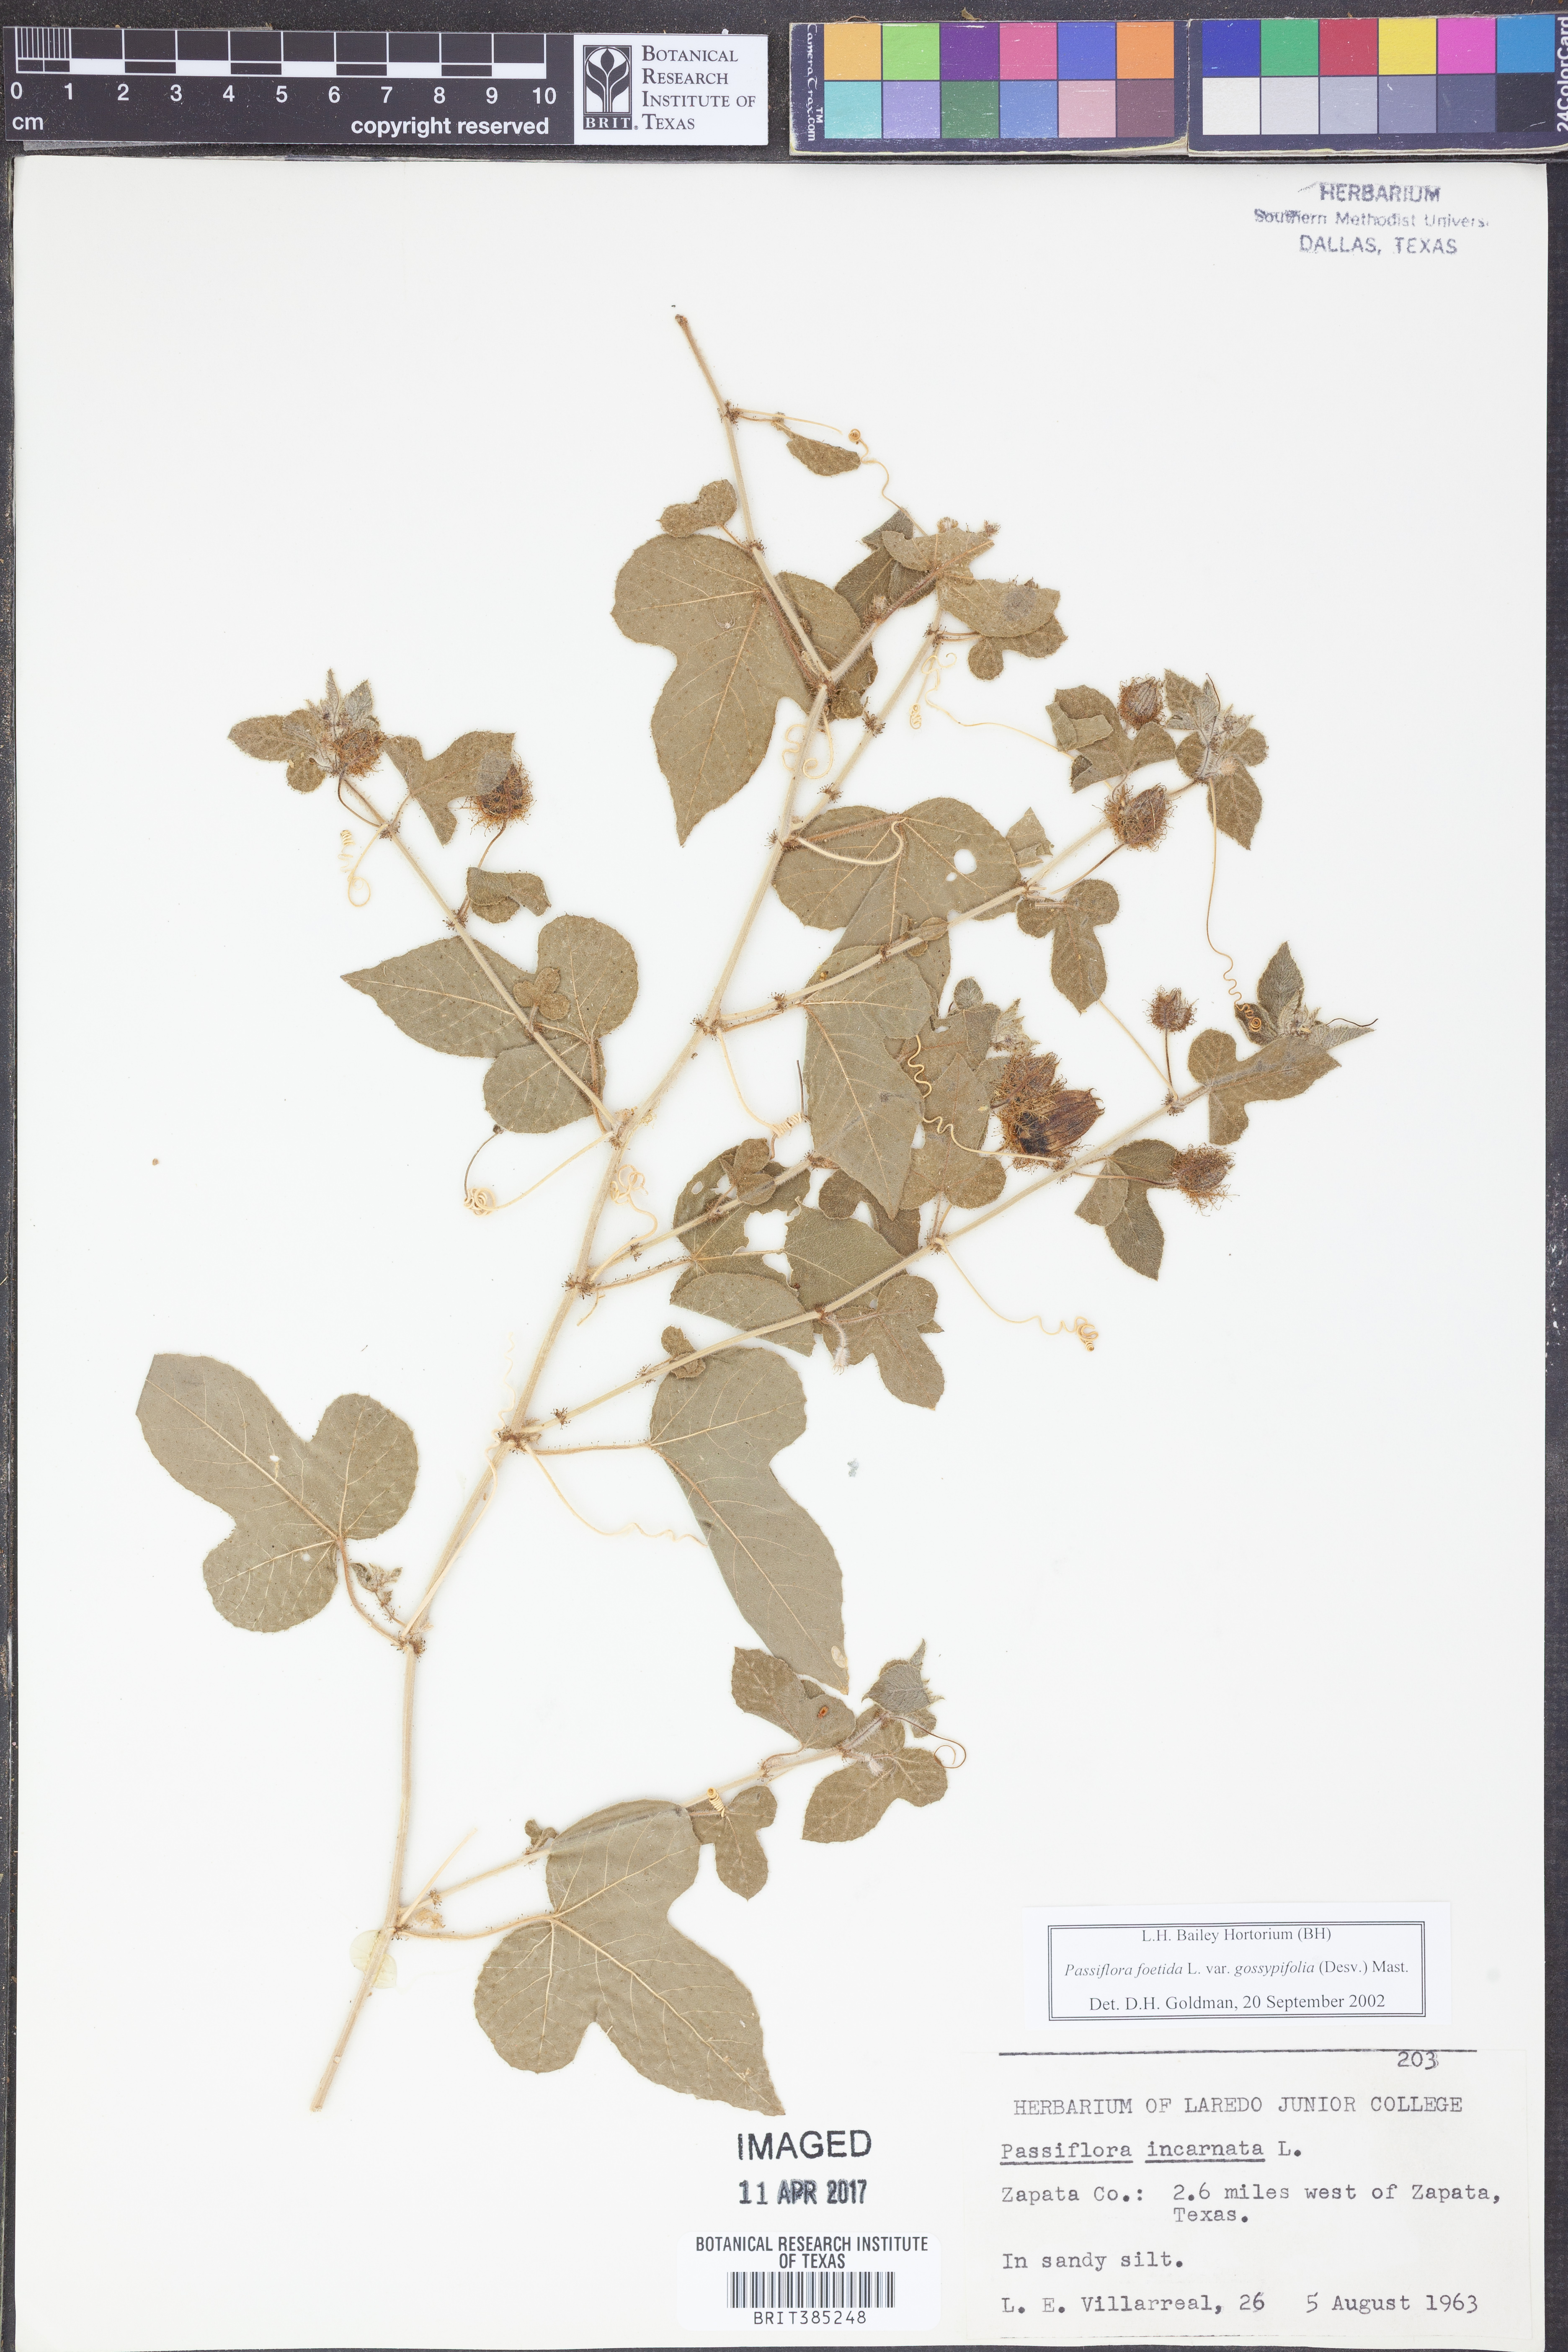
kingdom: Plantae
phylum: Tracheophyta
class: Magnoliopsida
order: Malpighiales
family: Passifloraceae
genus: Passiflora
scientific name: Passiflora foetida
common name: Fetid passionflower
